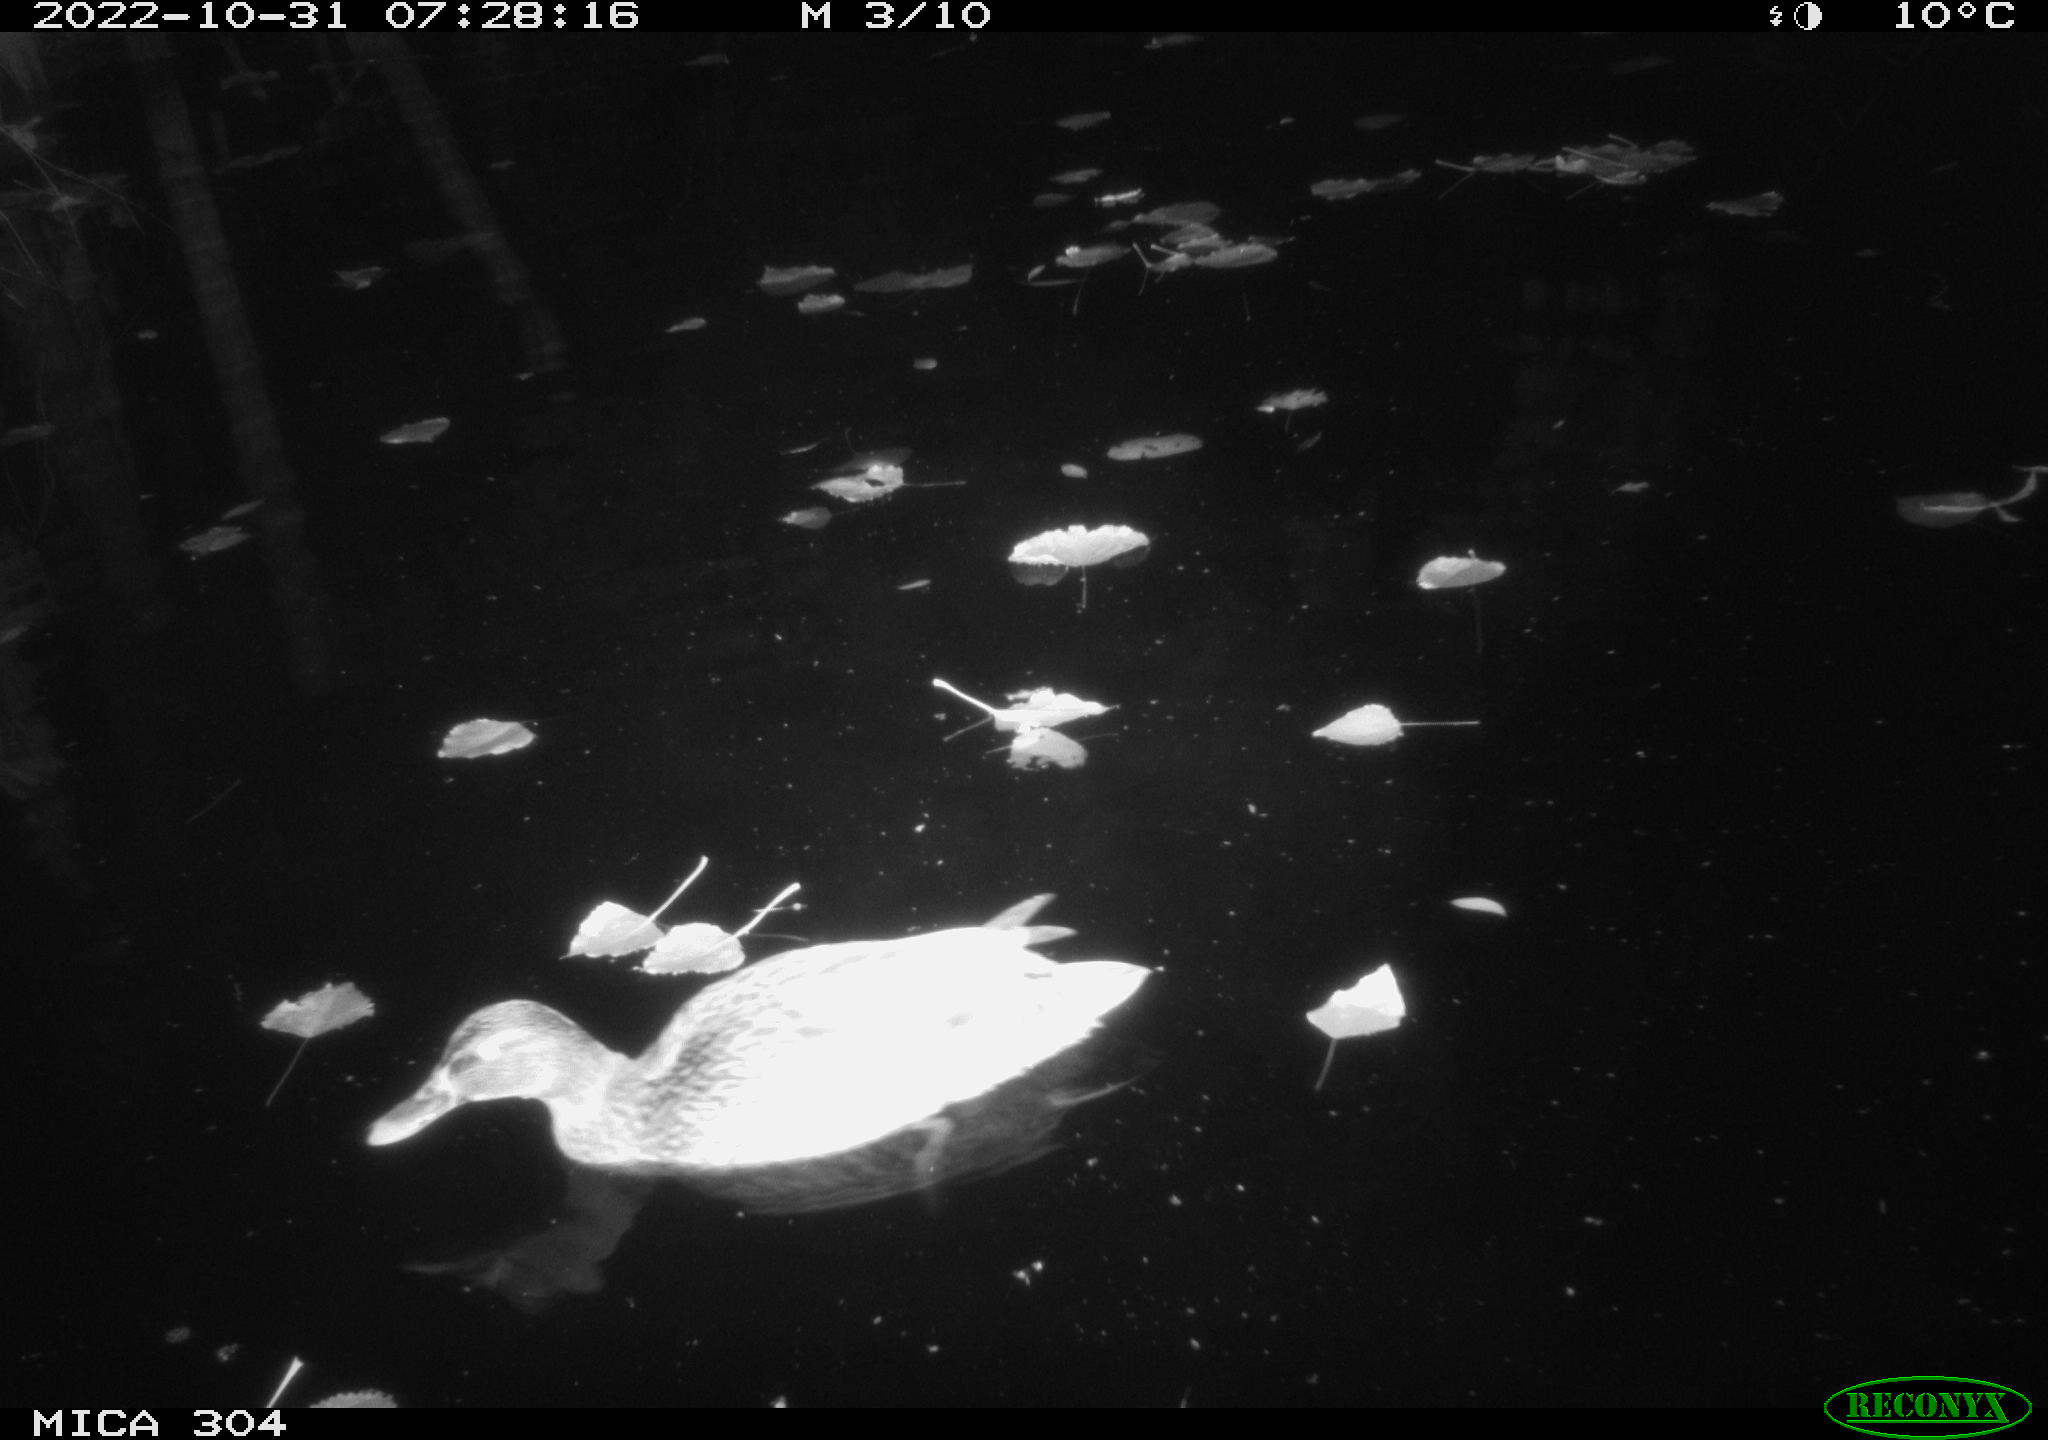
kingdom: Animalia
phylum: Chordata
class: Aves
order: Anseriformes
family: Anatidae
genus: Anas
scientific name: Anas
